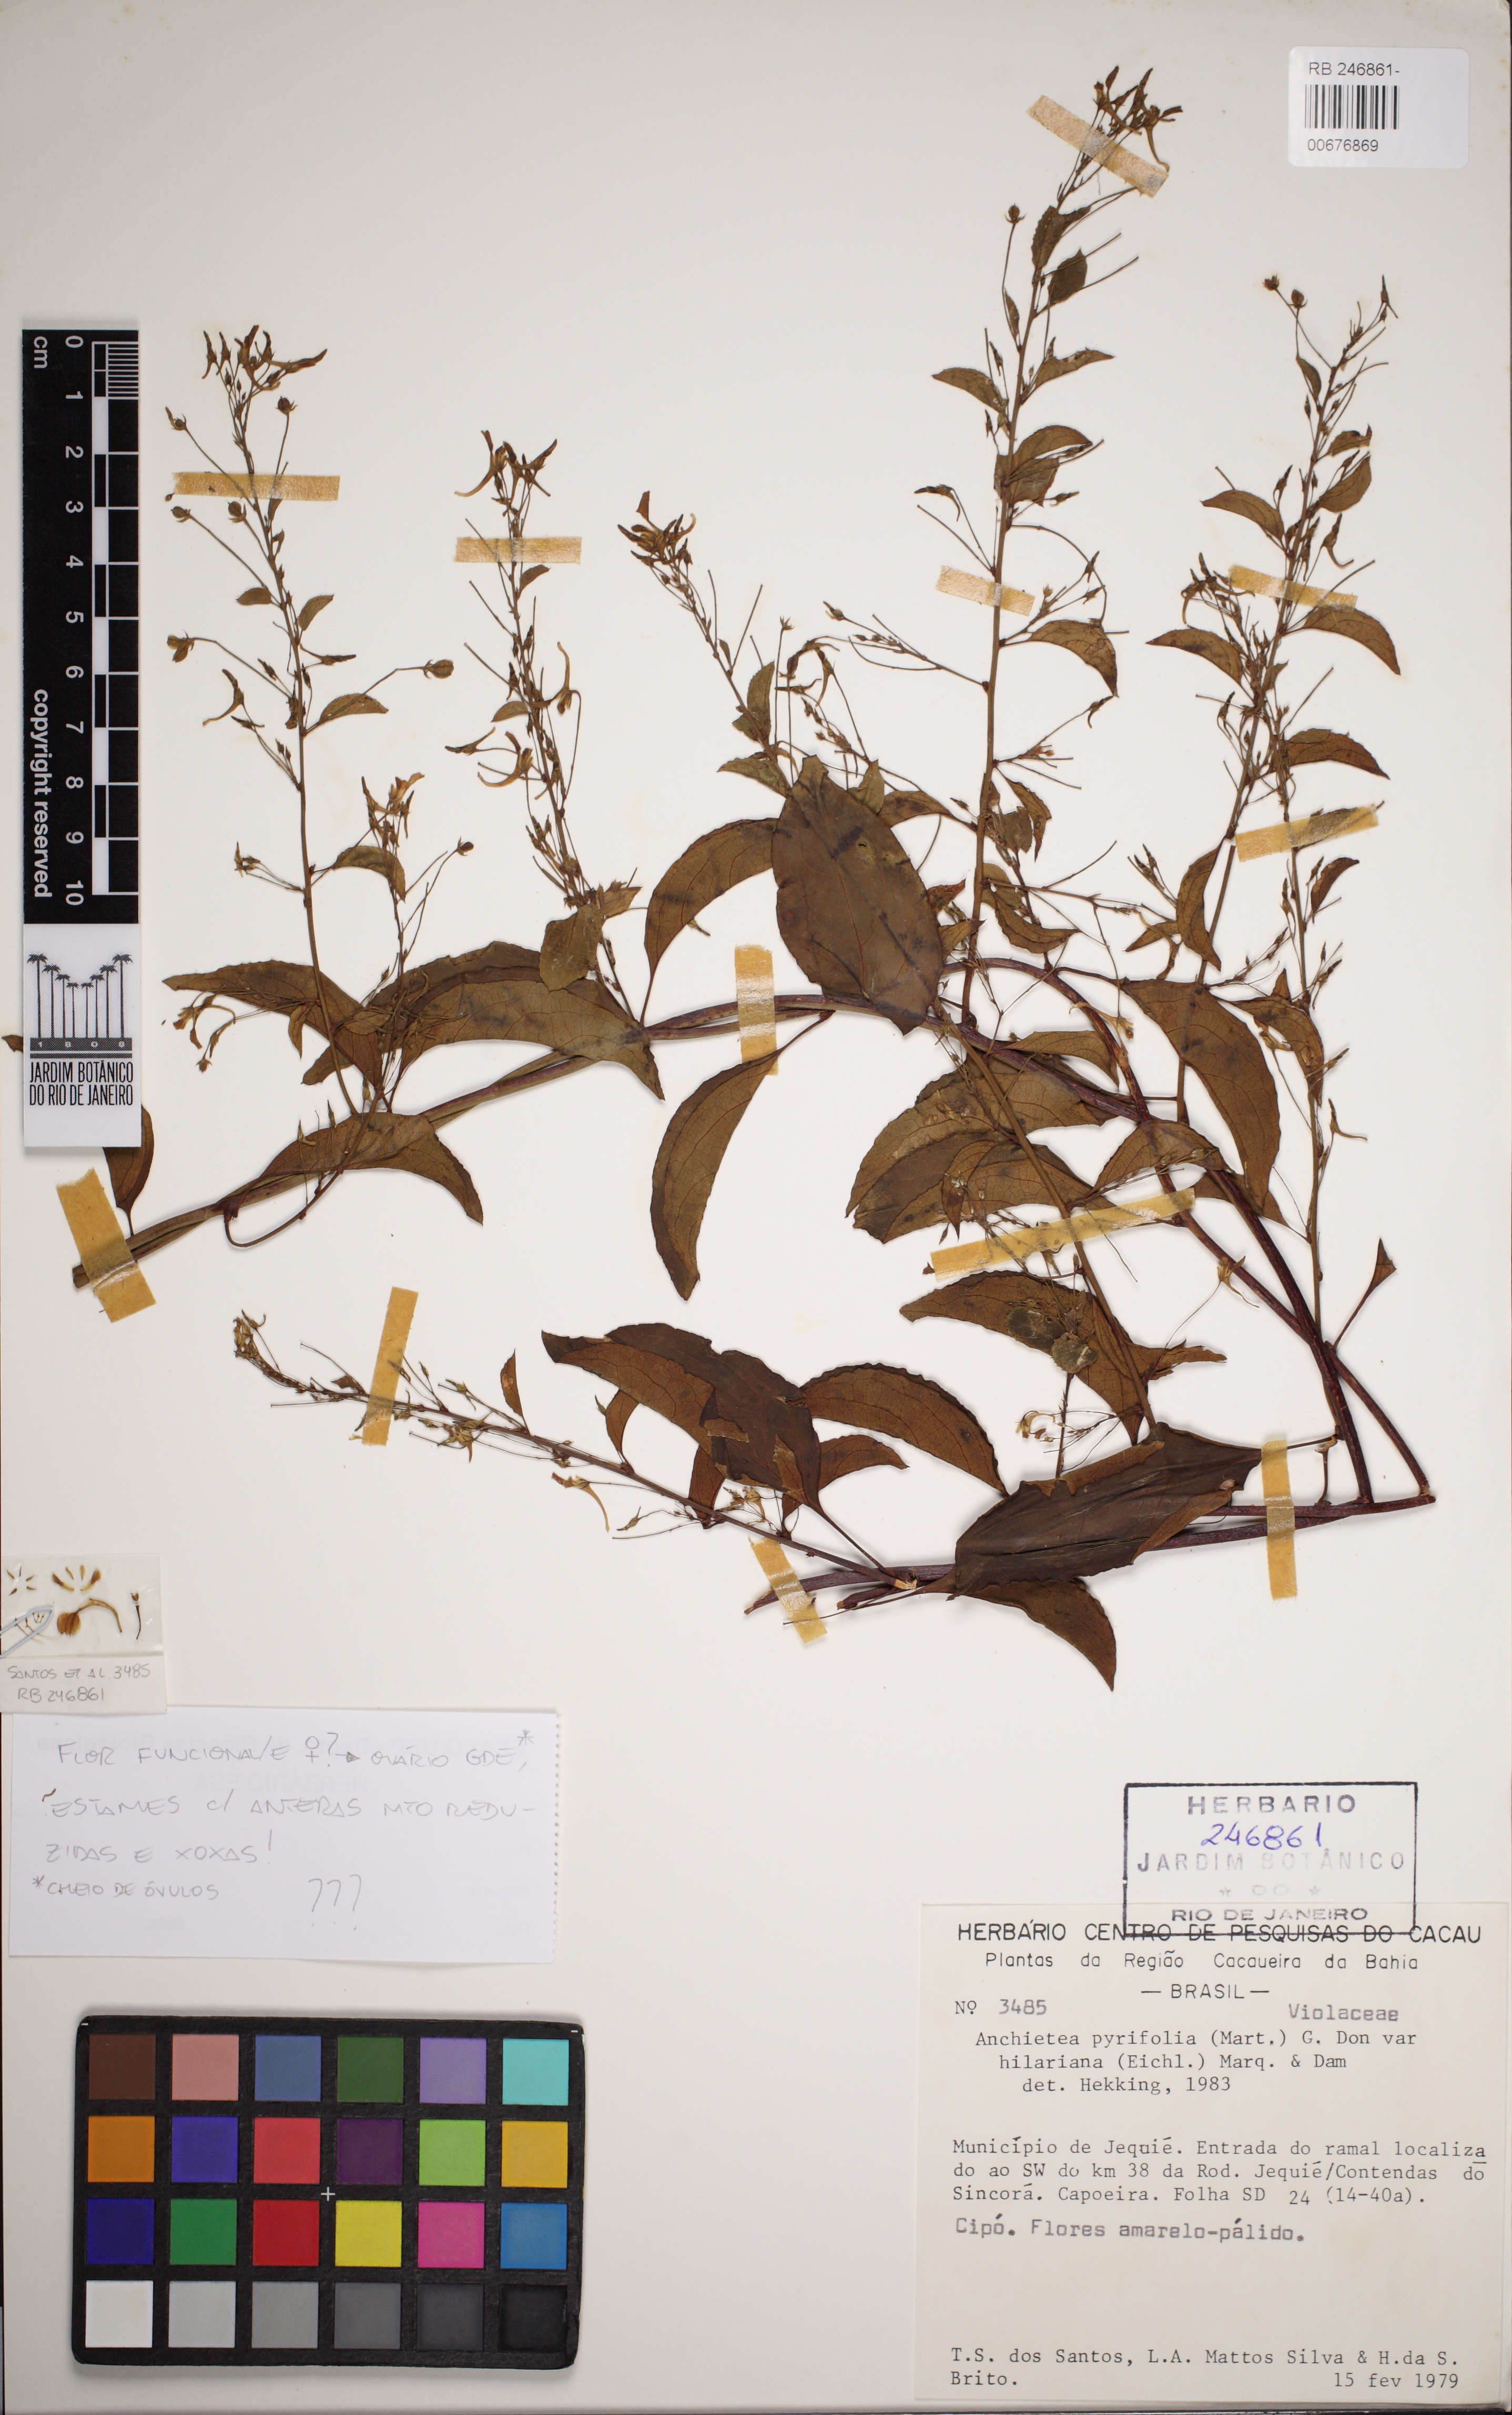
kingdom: Plantae
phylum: Tracheophyta
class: Magnoliopsida
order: Malpighiales
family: Violaceae
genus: Anchietea
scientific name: Anchietea sellowiana
